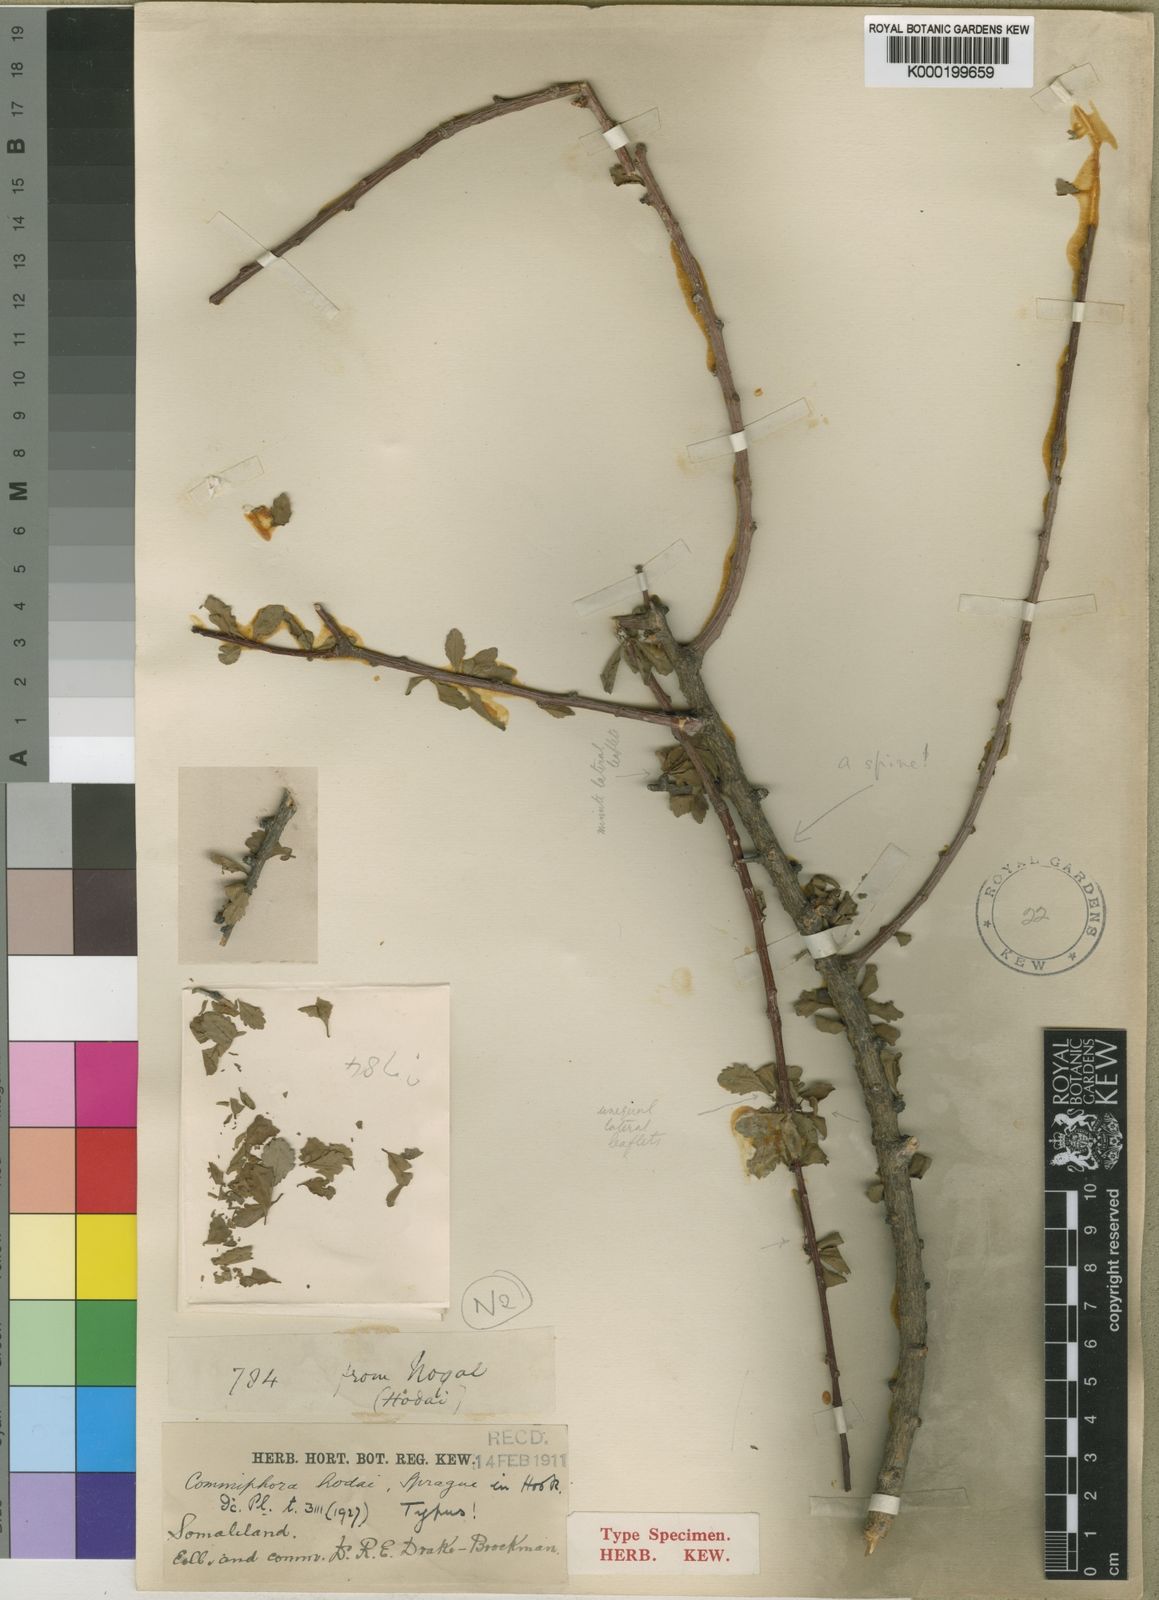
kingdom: Plantae
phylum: Tracheophyta
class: Magnoliopsida
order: Sapindales
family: Burseraceae
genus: Commiphora
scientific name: Commiphora hodai
